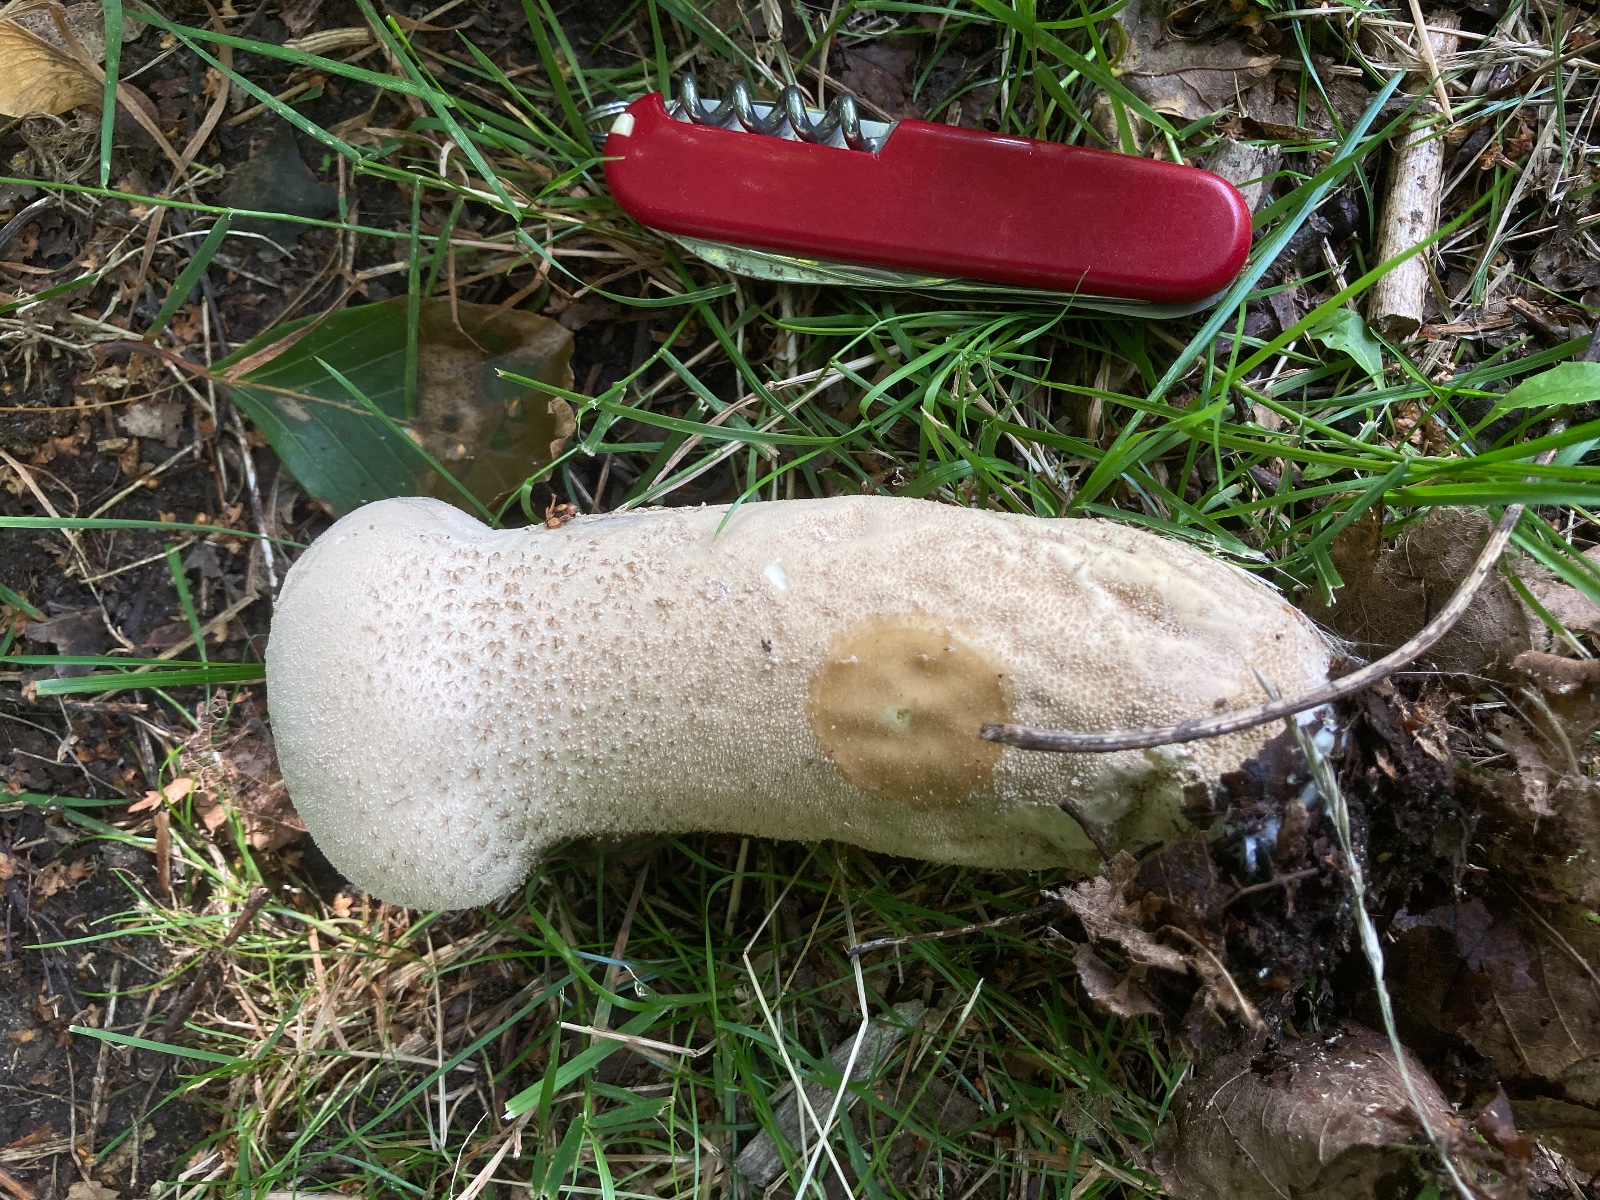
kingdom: Fungi
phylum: Basidiomycota
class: Agaricomycetes
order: Agaricales
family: Lycoperdaceae
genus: Lycoperdon
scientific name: Lycoperdon excipuliforme
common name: højstokket støvbold
